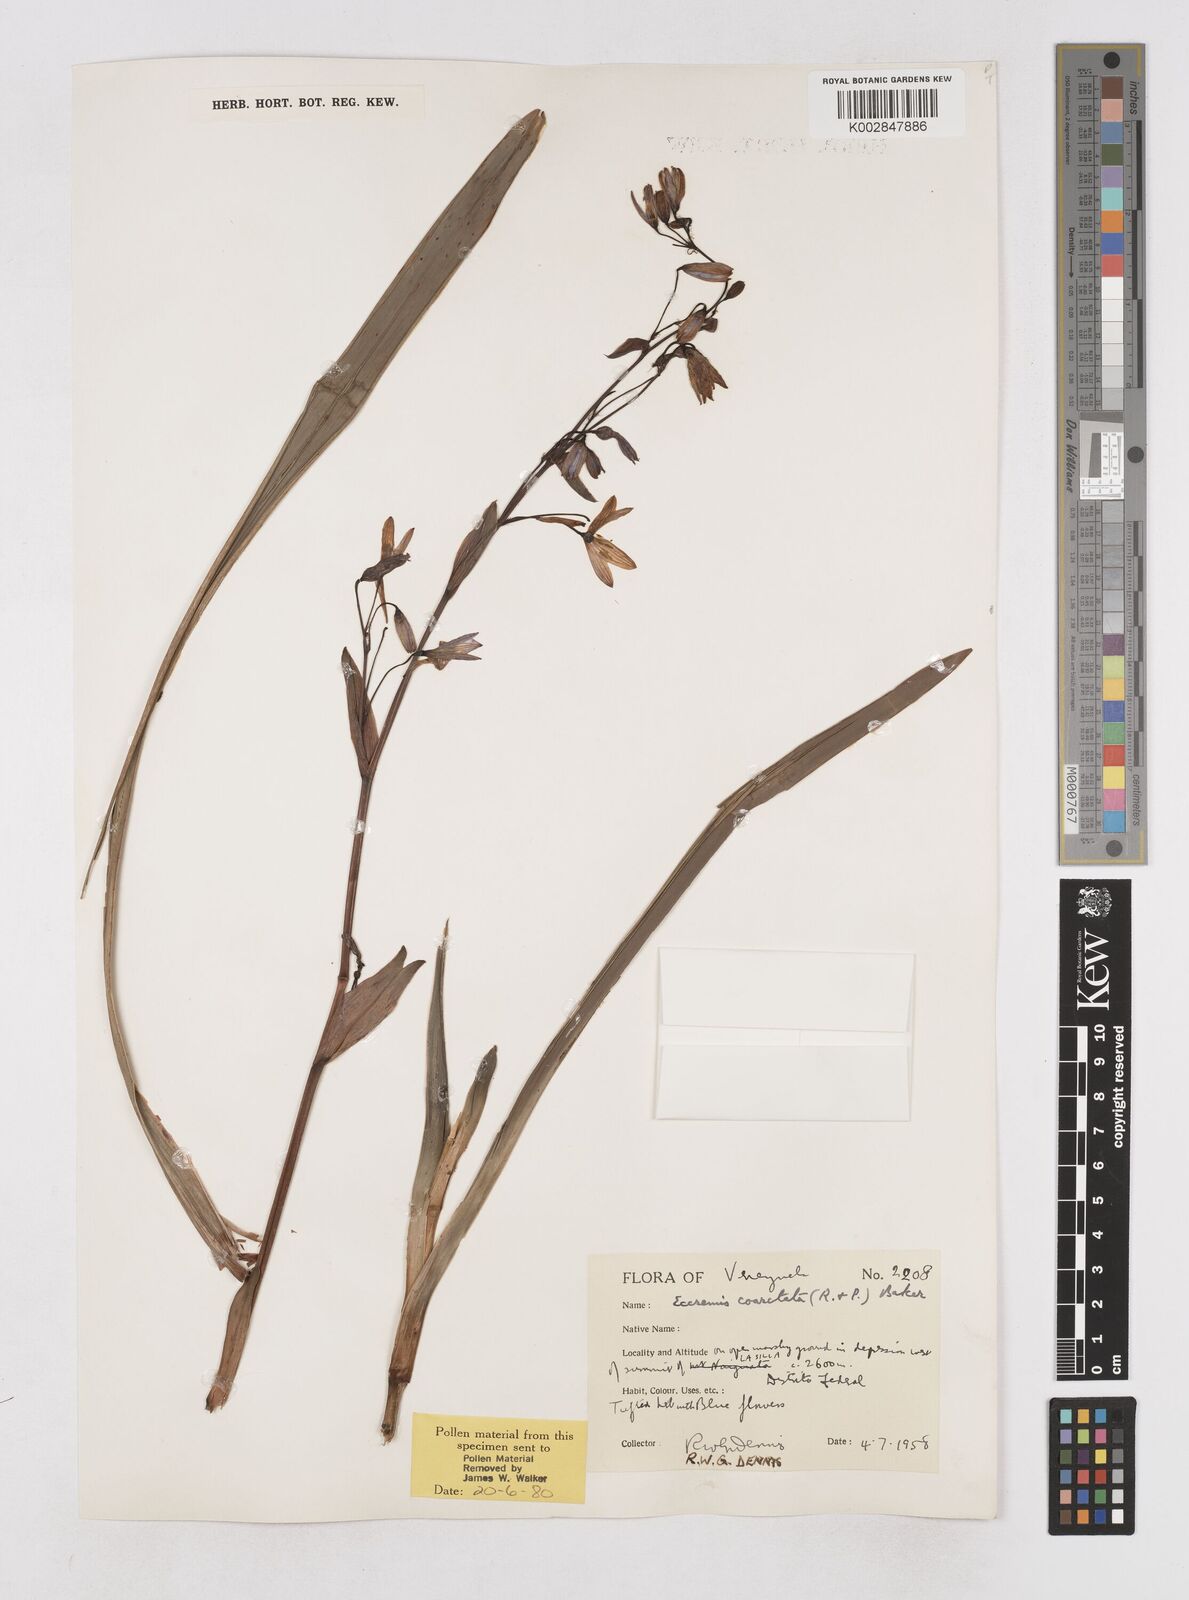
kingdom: Plantae
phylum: Tracheophyta
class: Liliopsida
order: Asparagales
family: Asphodelaceae
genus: Excremis
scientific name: Excremis coarctata
